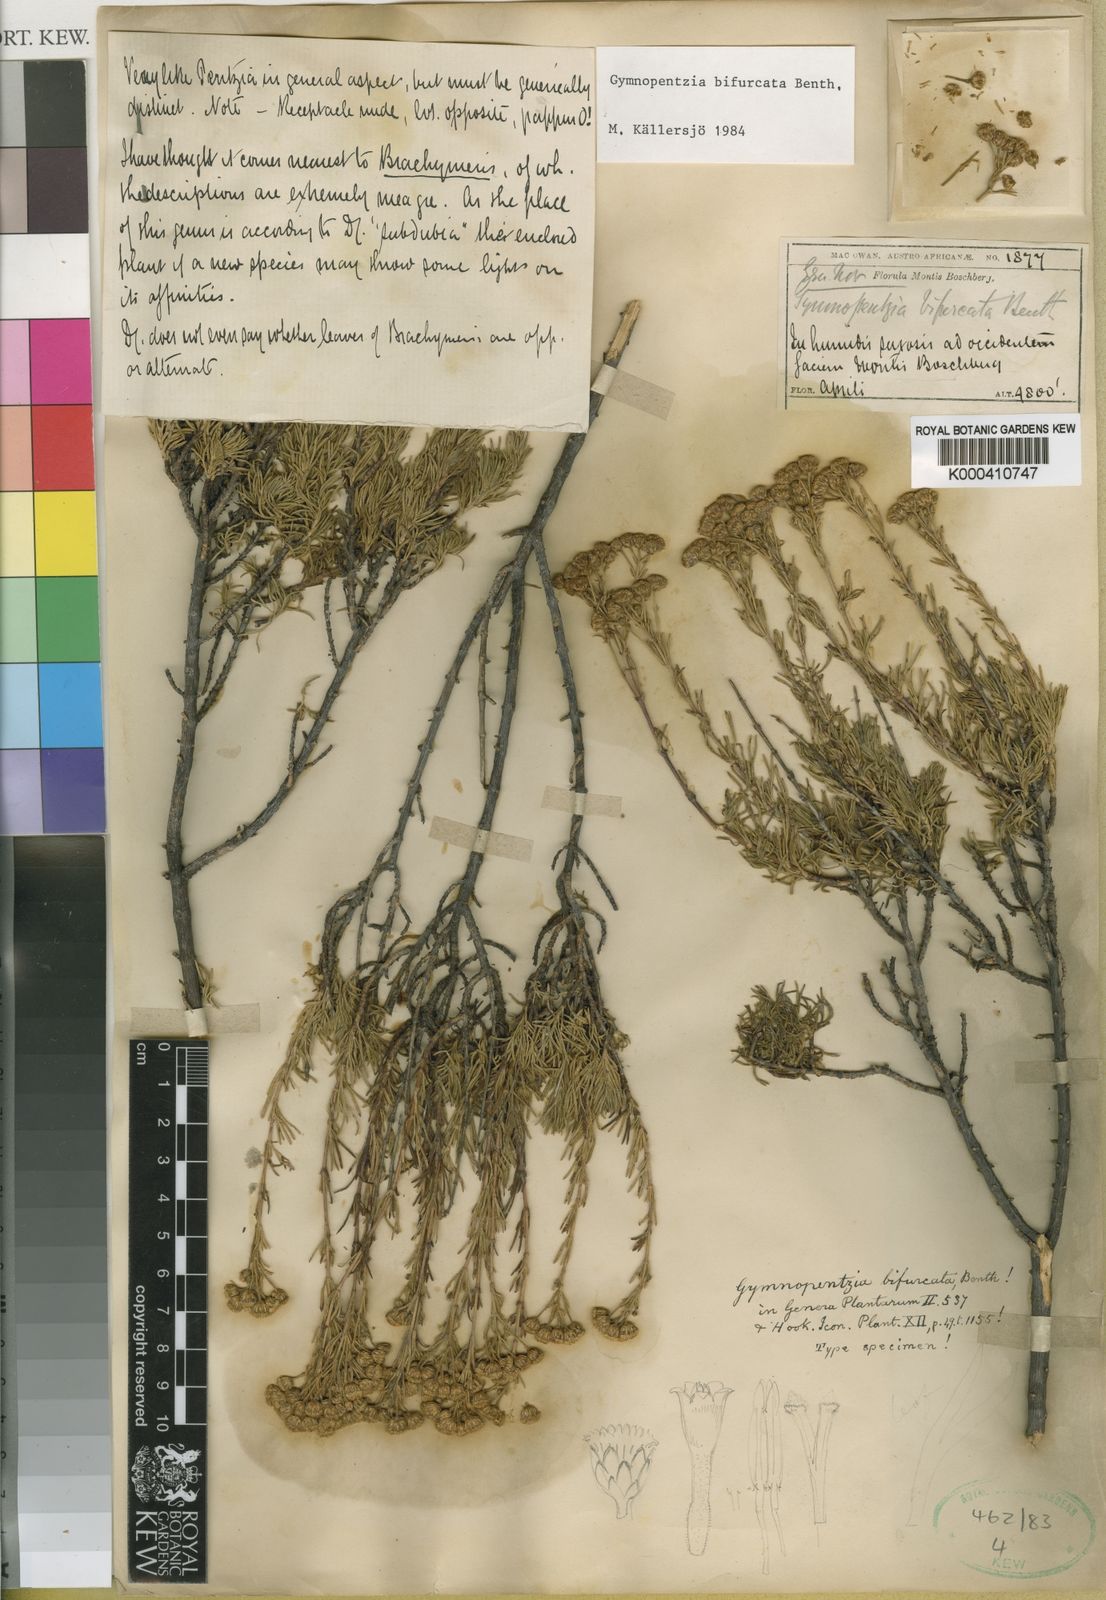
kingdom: Plantae
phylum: Tracheophyta
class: Magnoliopsida
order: Asterales
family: Asteraceae
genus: Gymnopentzia
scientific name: Gymnopentzia bifurcata
